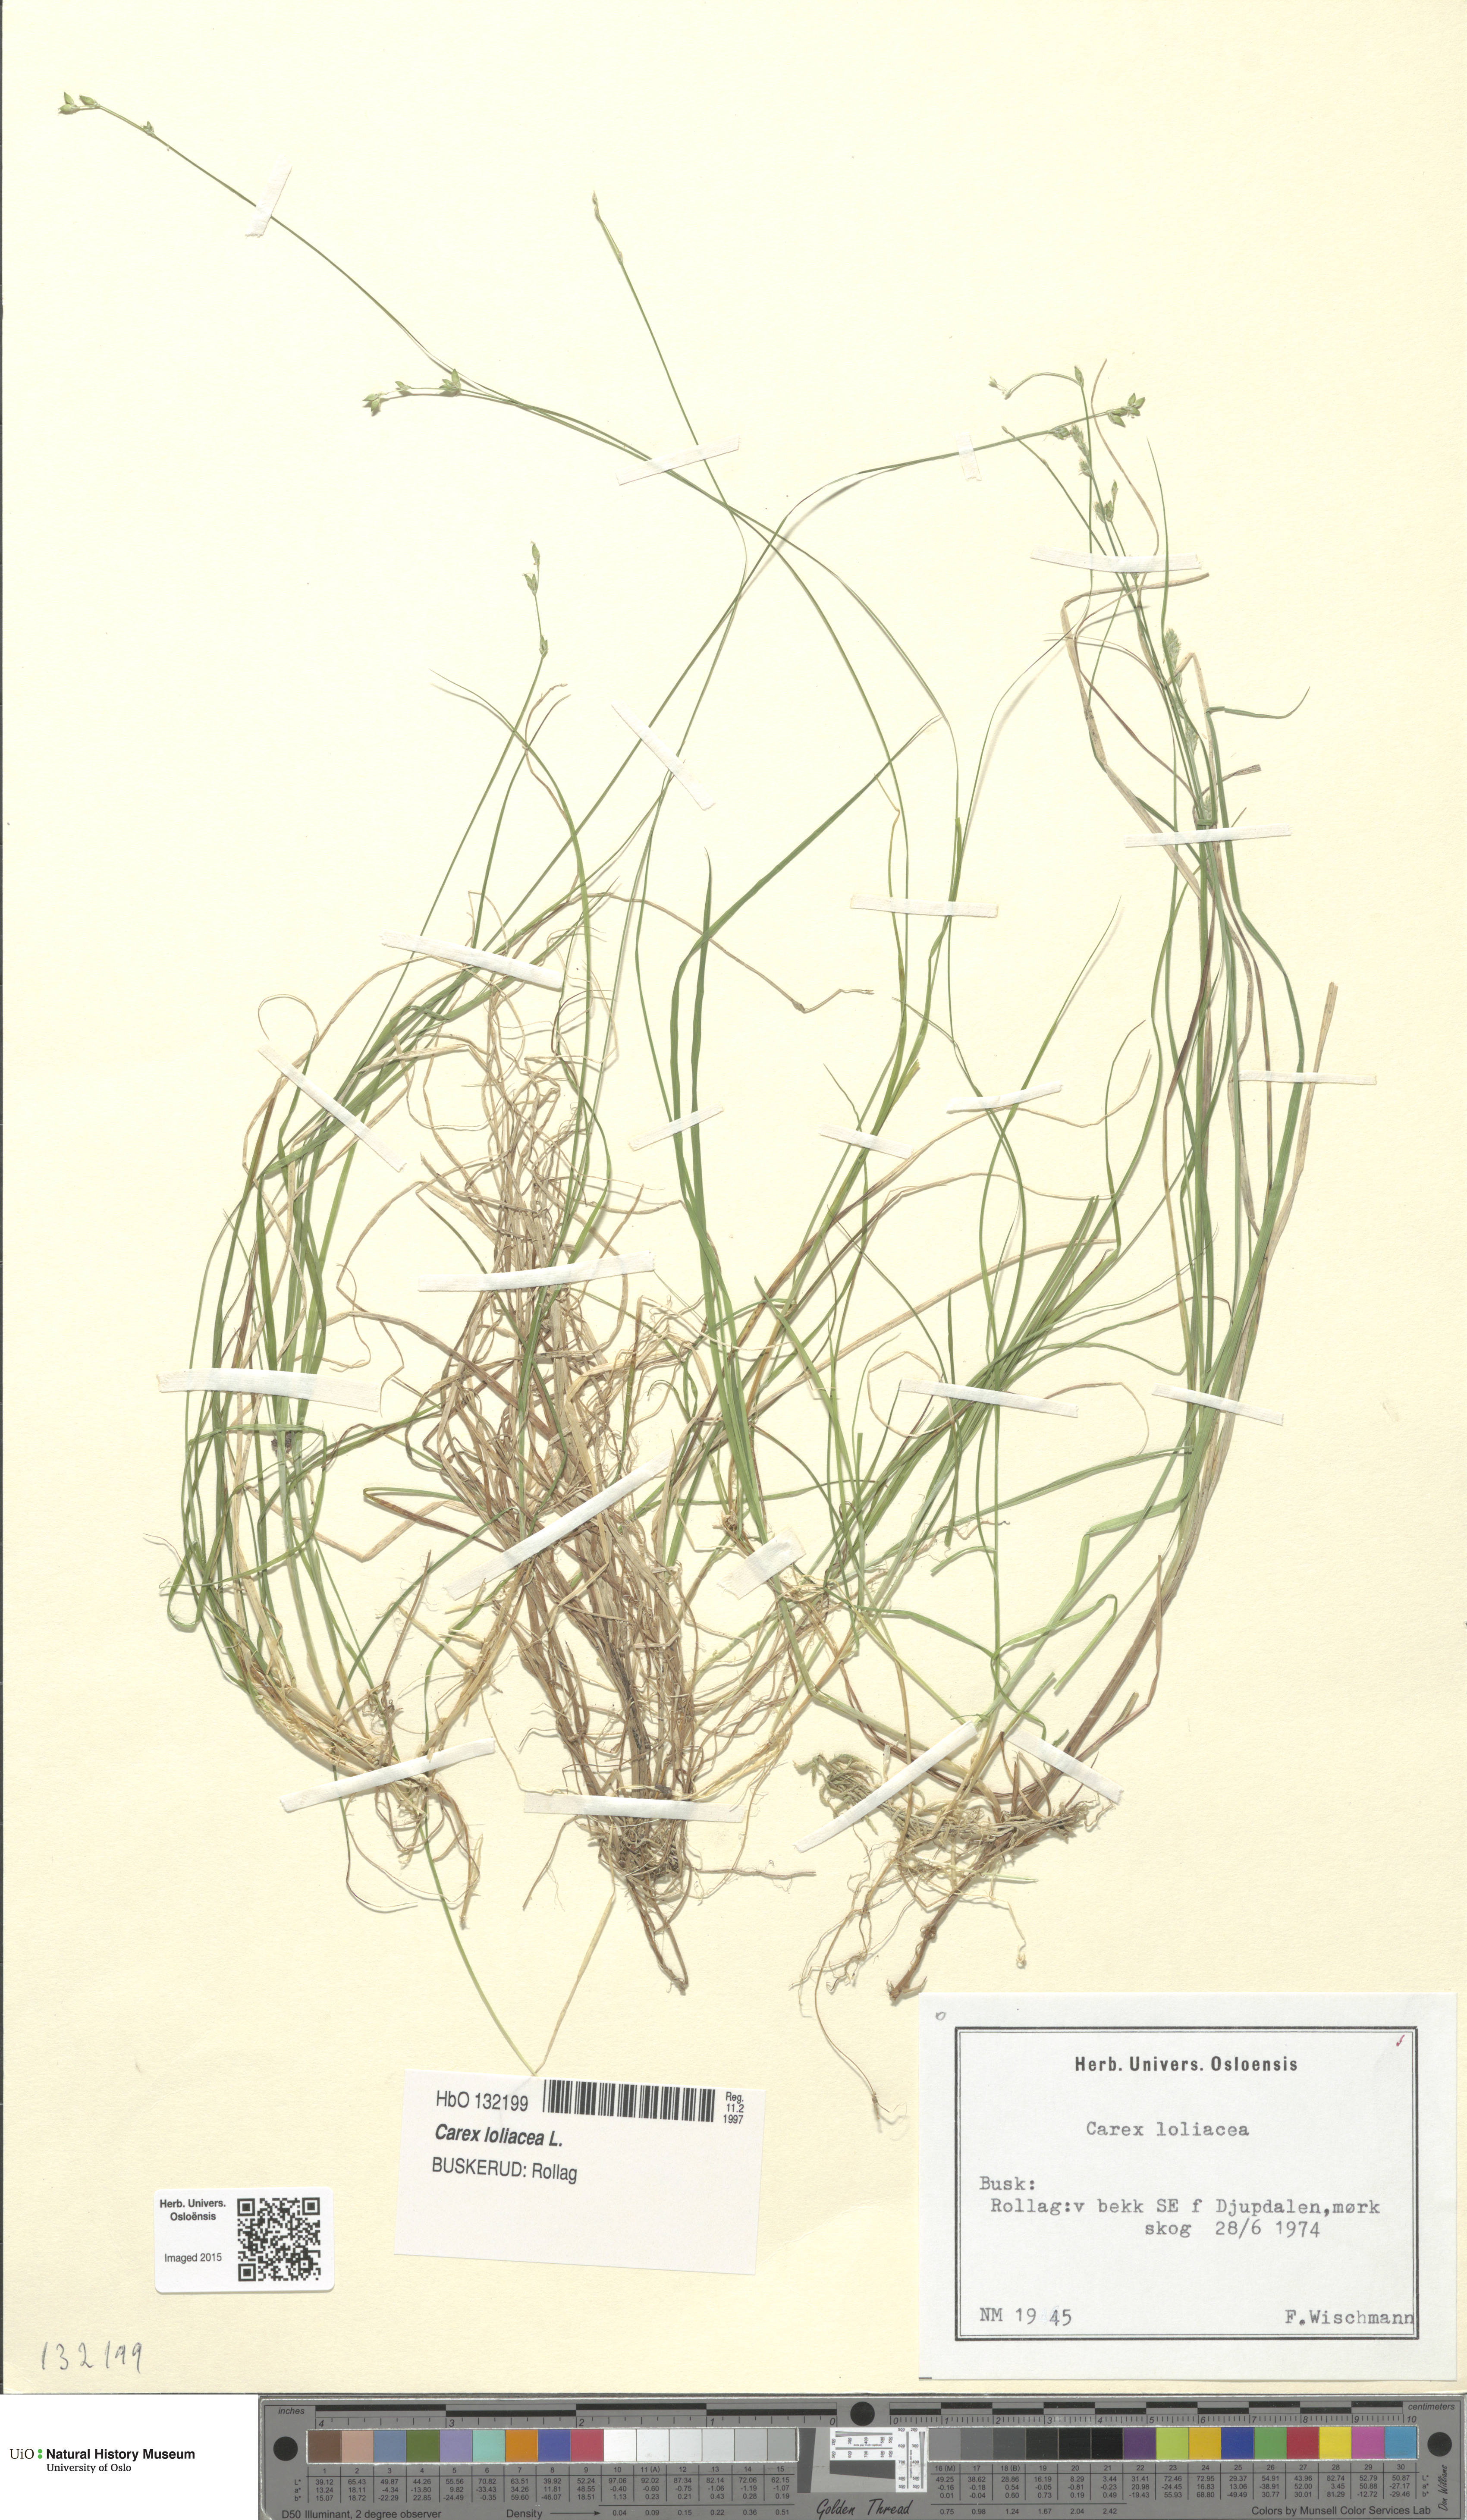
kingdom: Plantae
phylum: Tracheophyta
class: Liliopsida
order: Poales
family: Cyperaceae
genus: Carex
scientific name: Carex loliacea
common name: Ryegrass sedge
